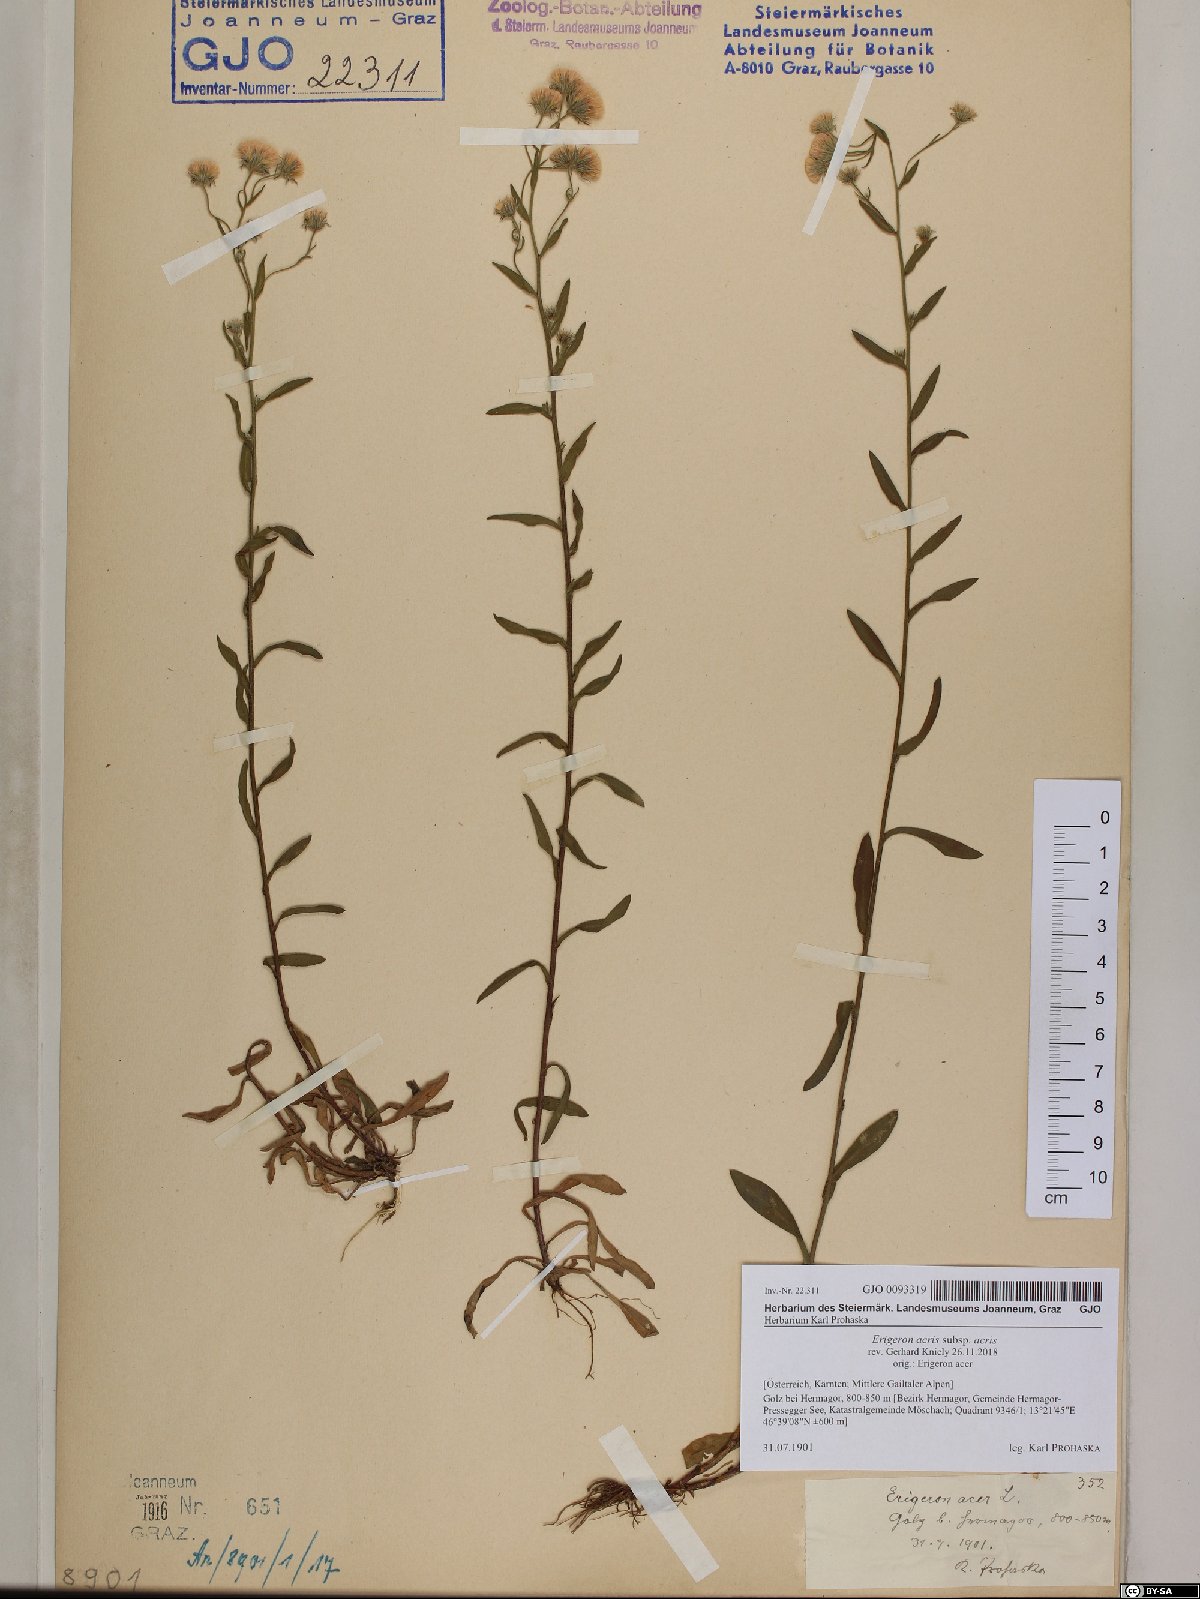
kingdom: Plantae
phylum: Tracheophyta
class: Magnoliopsida
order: Asterales
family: Asteraceae
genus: Erigeron
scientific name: Erigeron acris
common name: Blue fleabane
